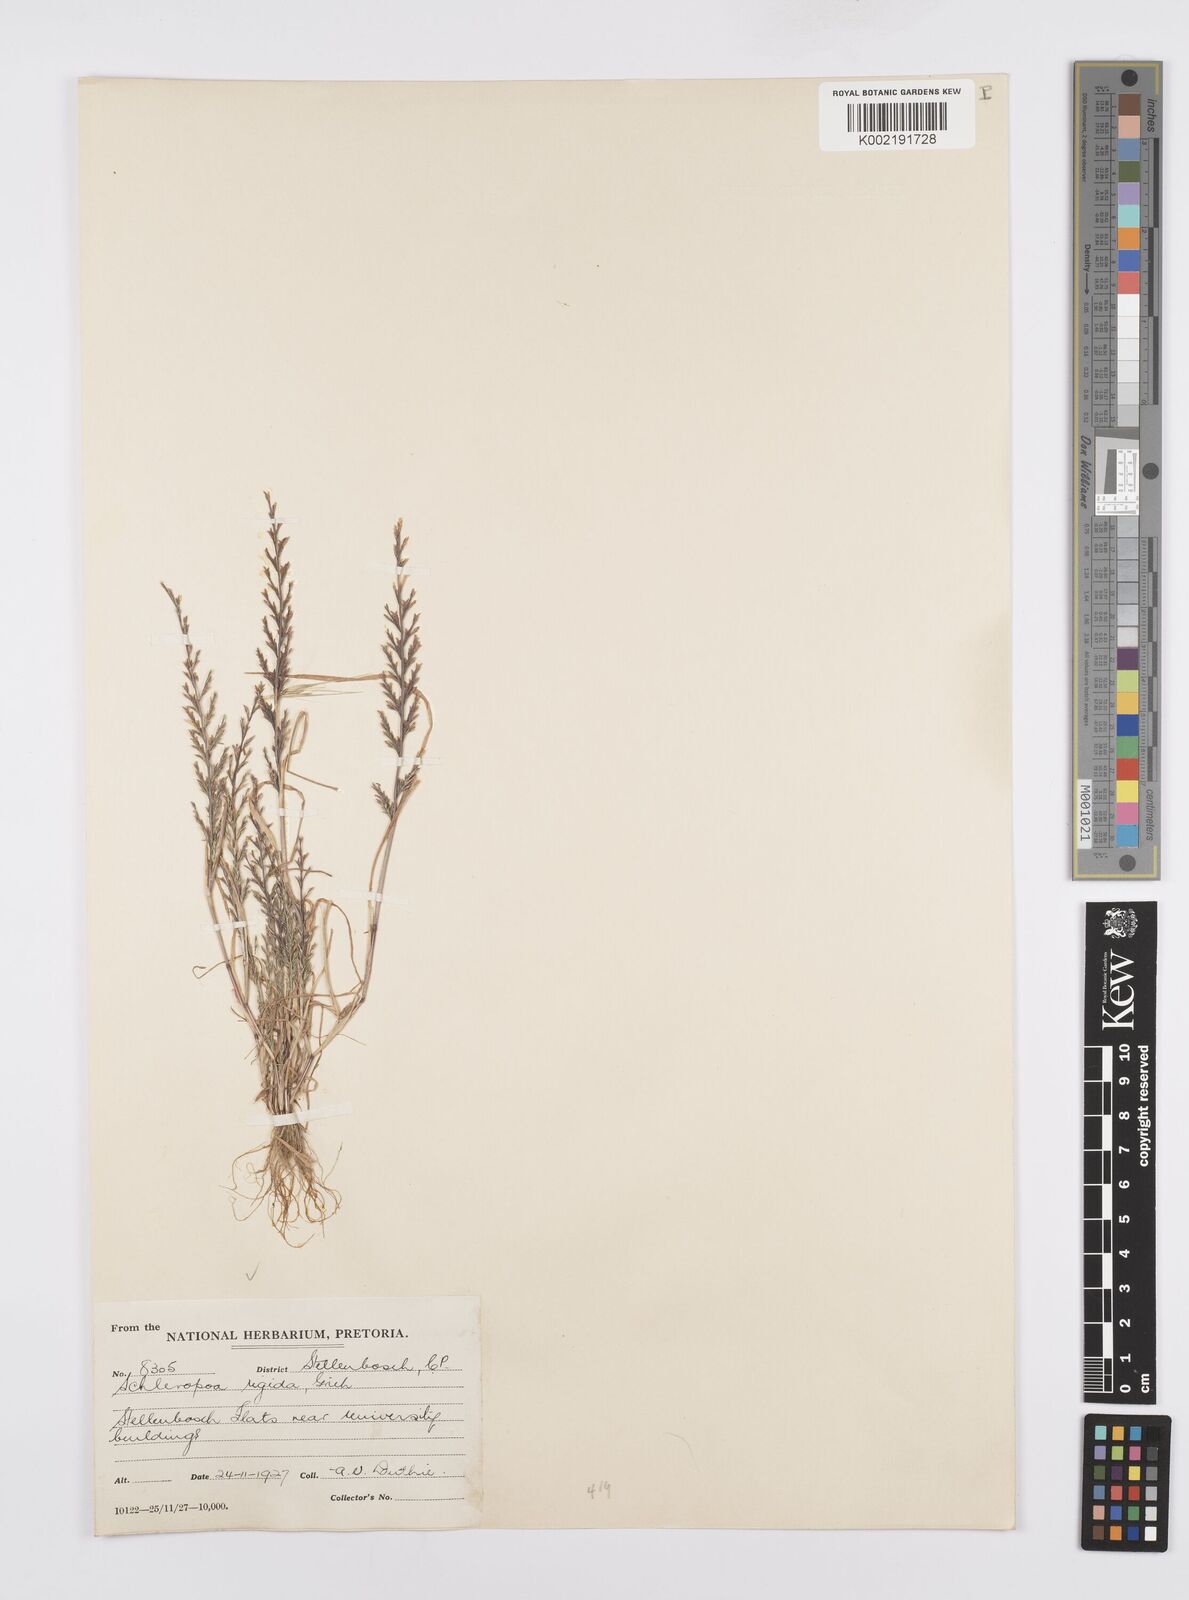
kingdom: Plantae
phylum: Tracheophyta
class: Liliopsida
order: Poales
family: Poaceae
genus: Catapodium
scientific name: Catapodium rigidum
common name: Fern-grass
